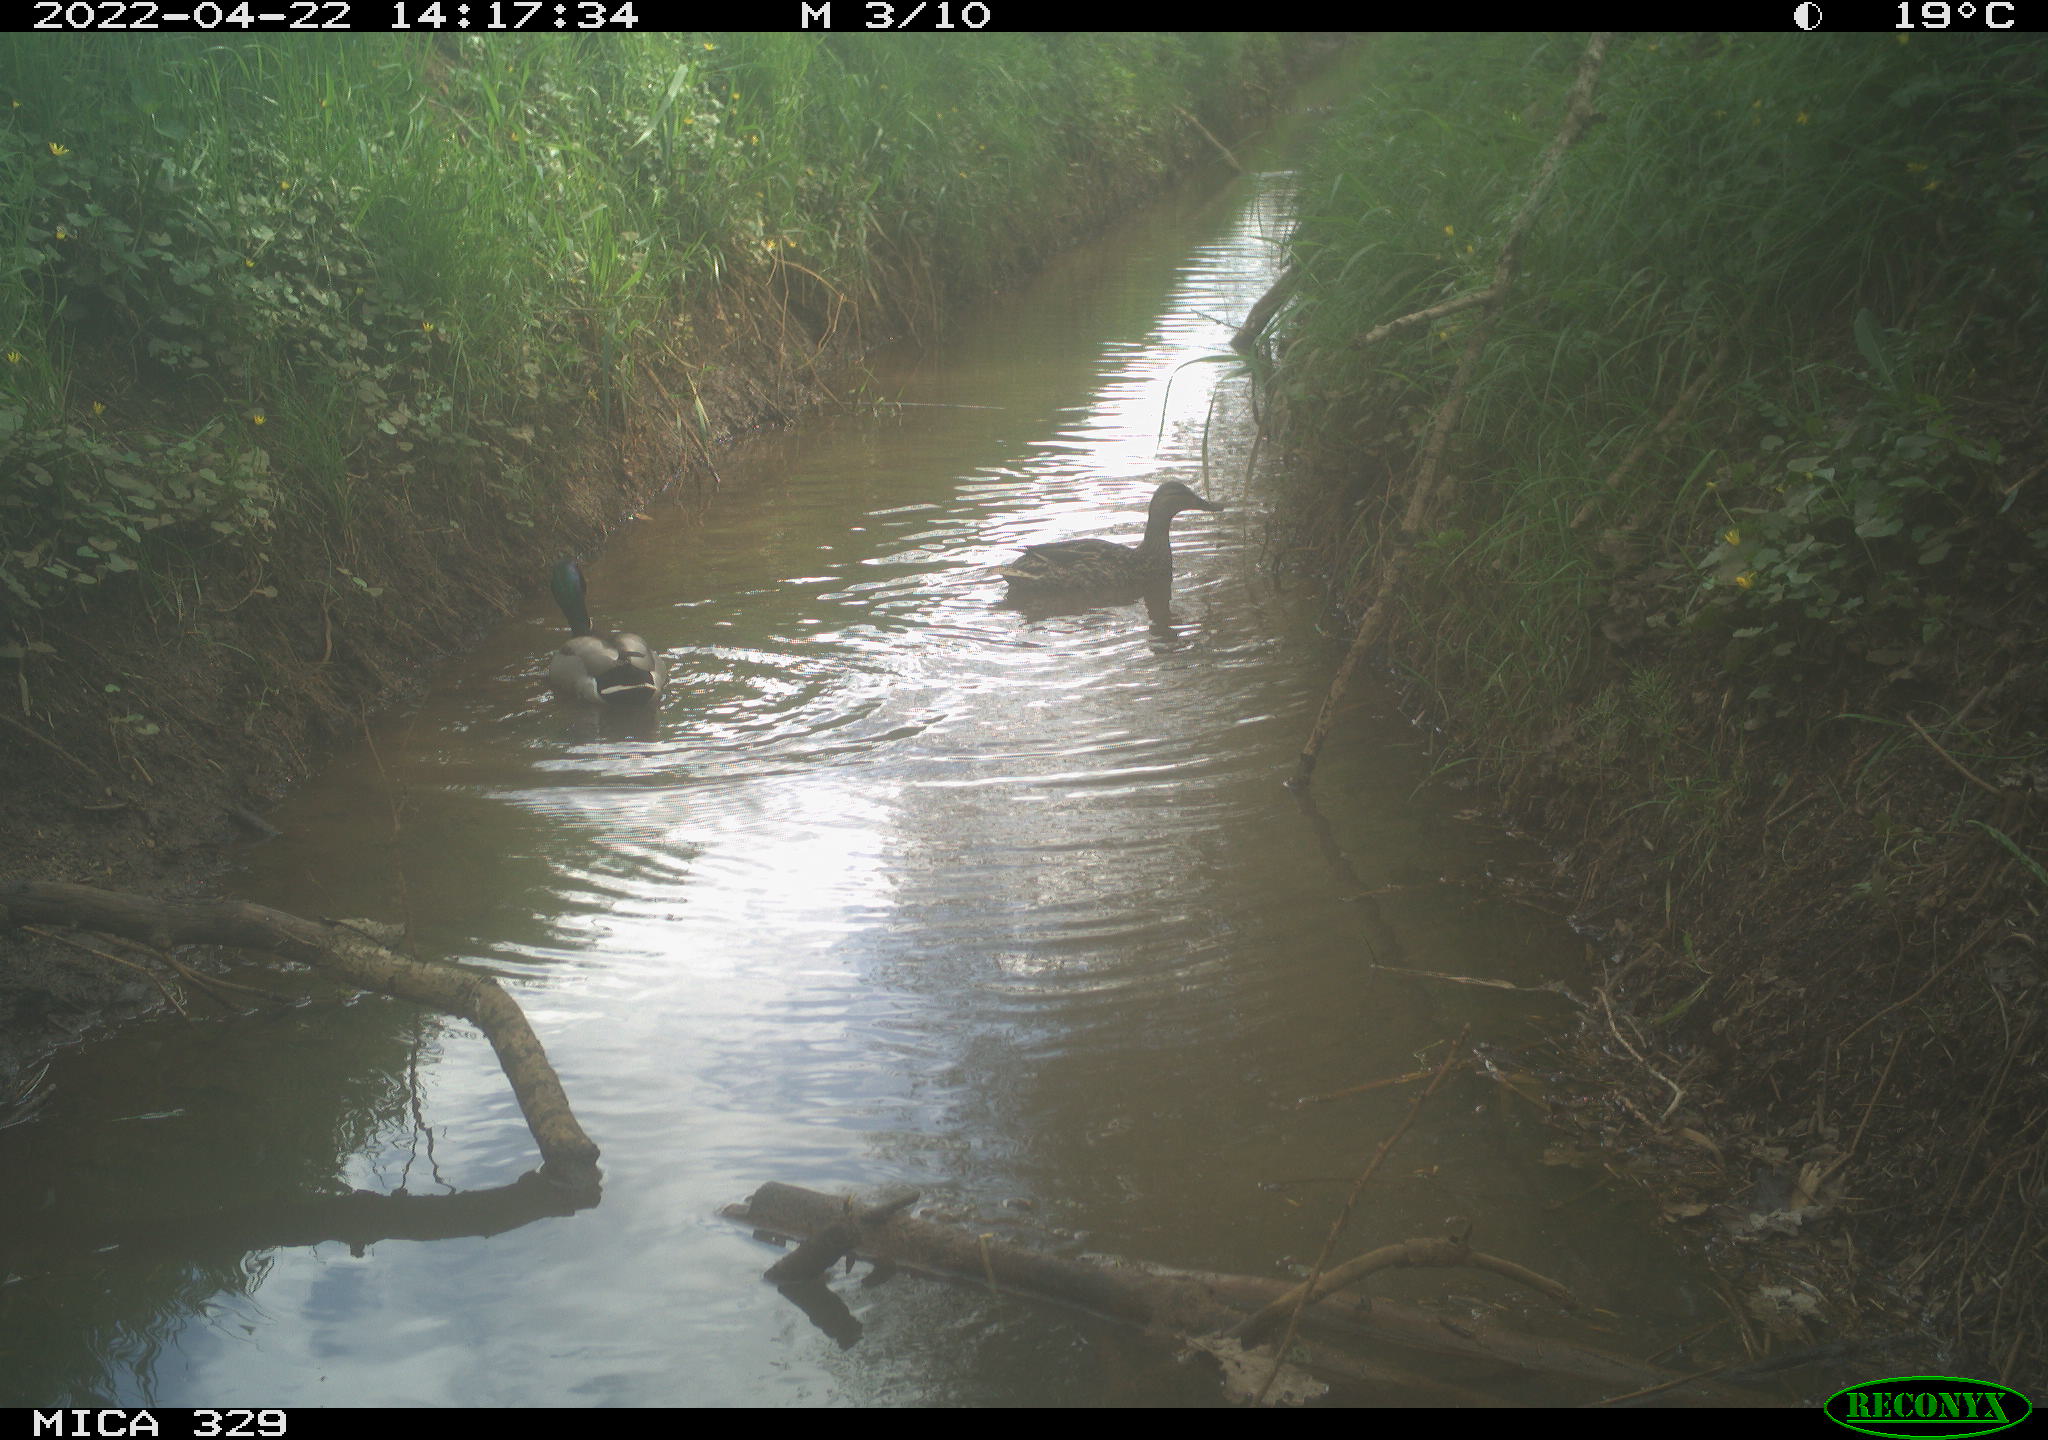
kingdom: Animalia
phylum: Chordata
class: Aves
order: Anseriformes
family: Anatidae
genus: Anas
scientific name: Anas platyrhynchos
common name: Mallard
